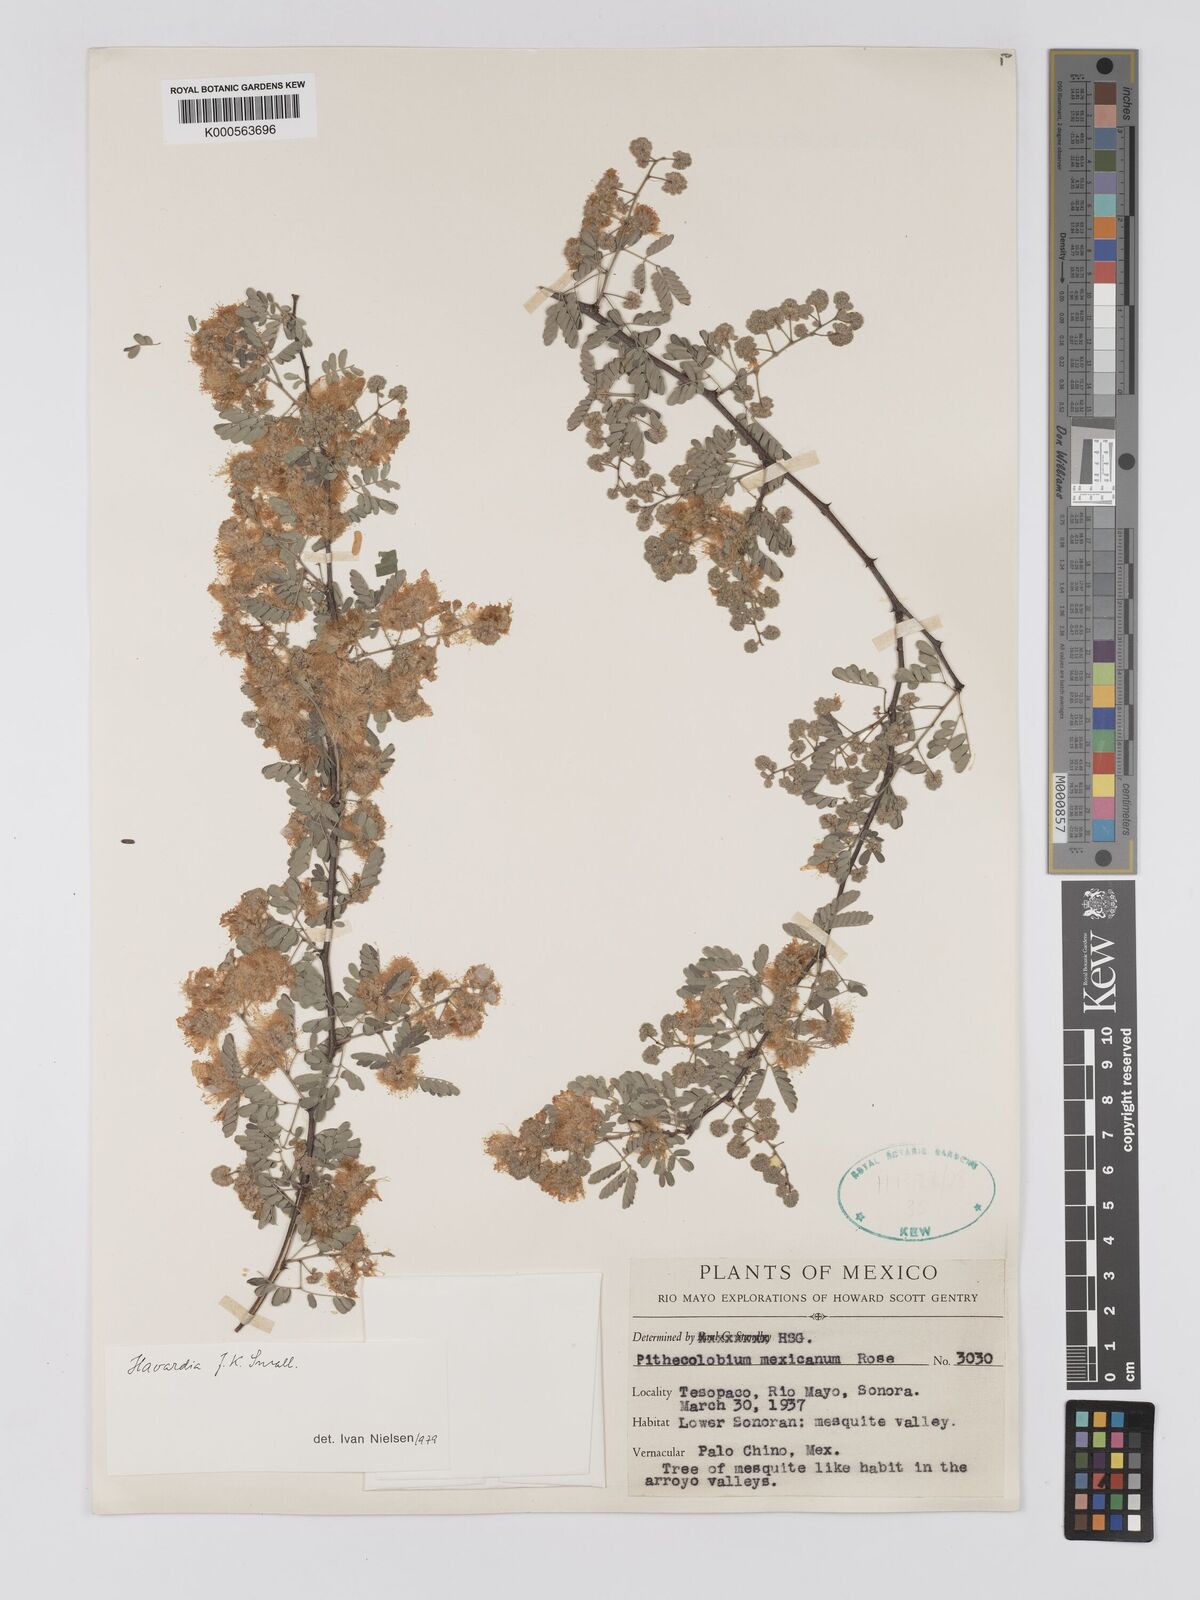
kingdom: Plantae
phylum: Tracheophyta
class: Magnoliopsida
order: Fabales
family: Fabaceae
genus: Havardia
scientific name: Havardia mexicana
